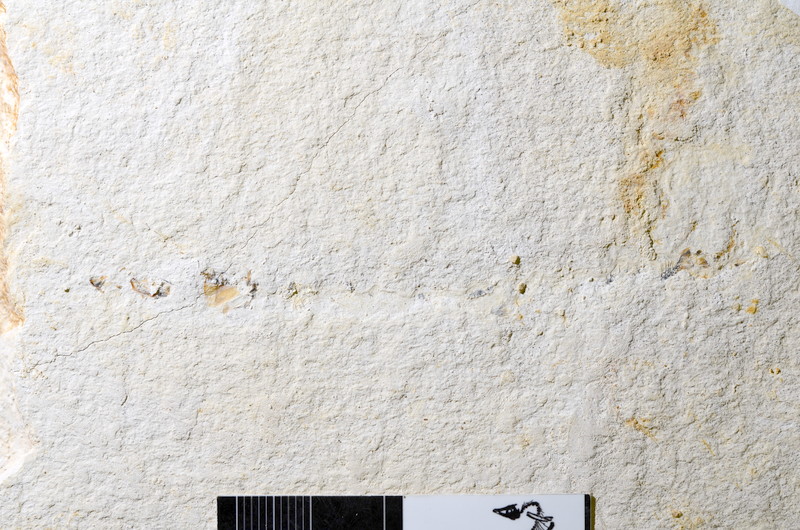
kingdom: Animalia
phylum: Chordata
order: Salmoniformes
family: Orthogonikleithridae
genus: Orthogonikleithrus
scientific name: Orthogonikleithrus hoelli
